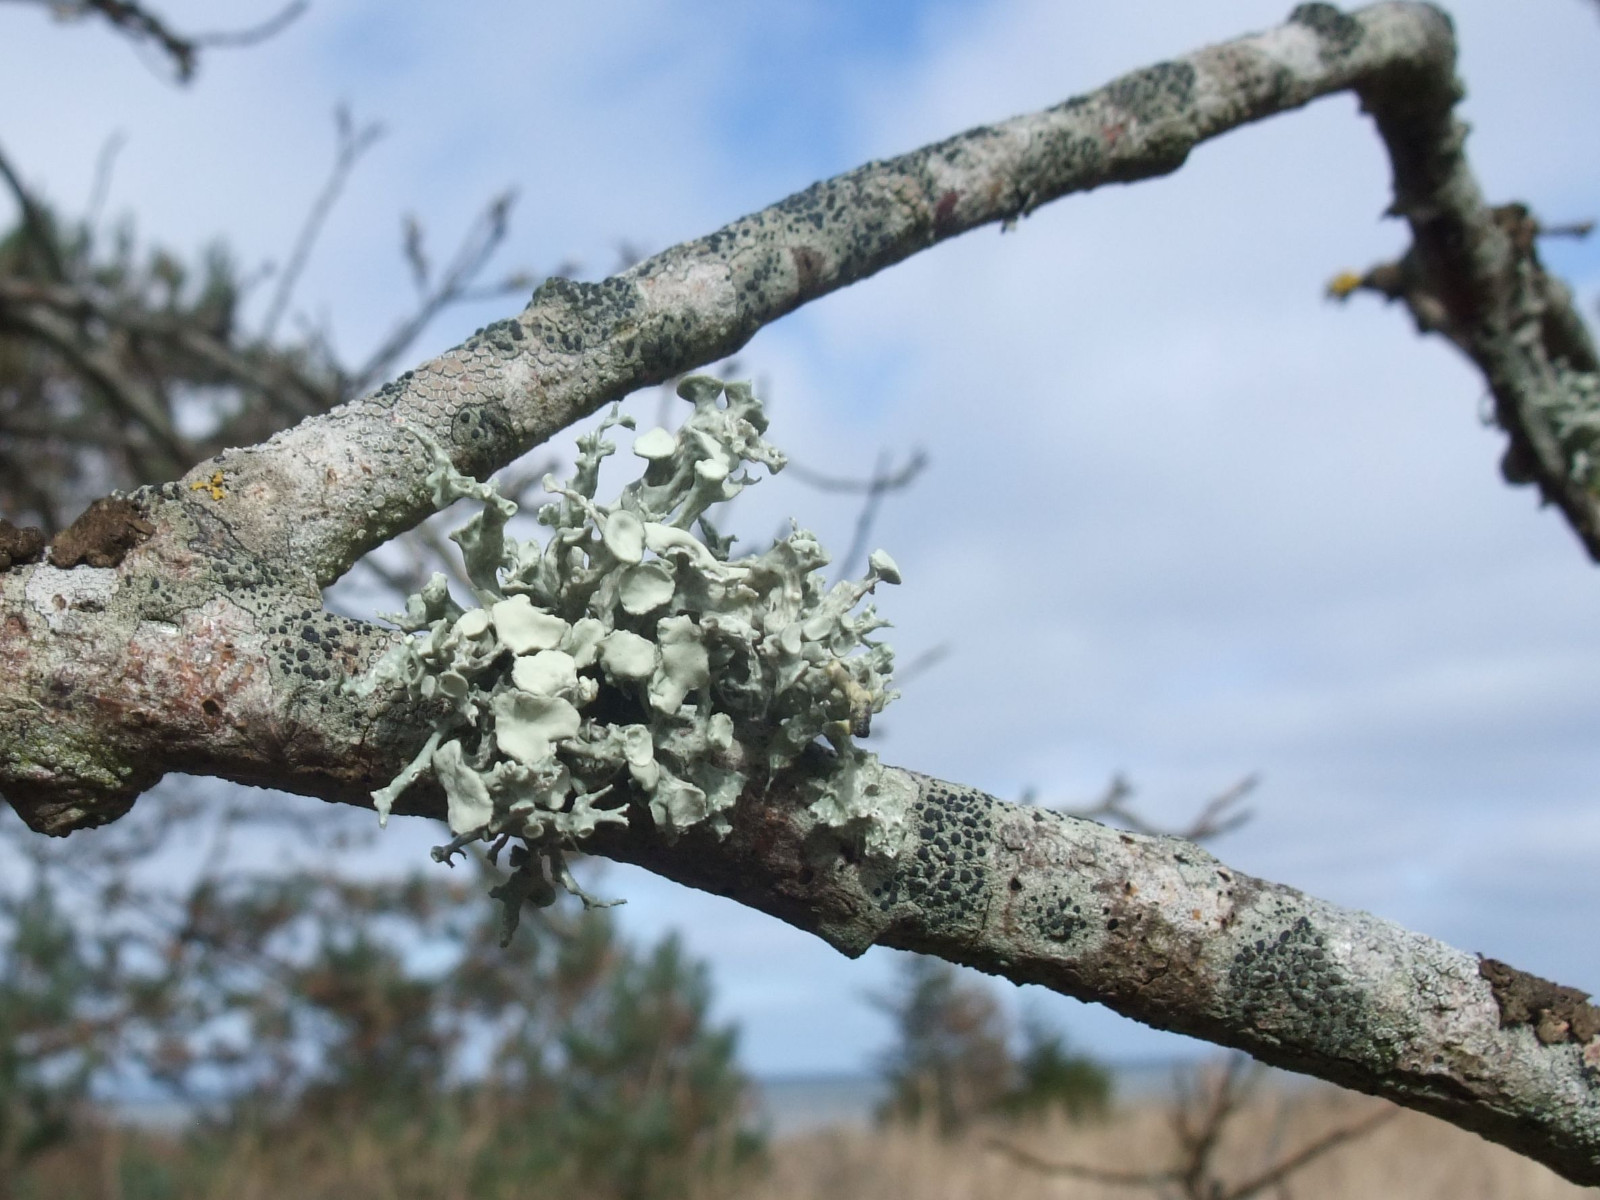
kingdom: Fungi
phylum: Ascomycota
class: Lecanoromycetes
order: Lecanorales
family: Ramalinaceae
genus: Ramalina
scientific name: Ramalina fastigiata
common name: tue-grenlav
